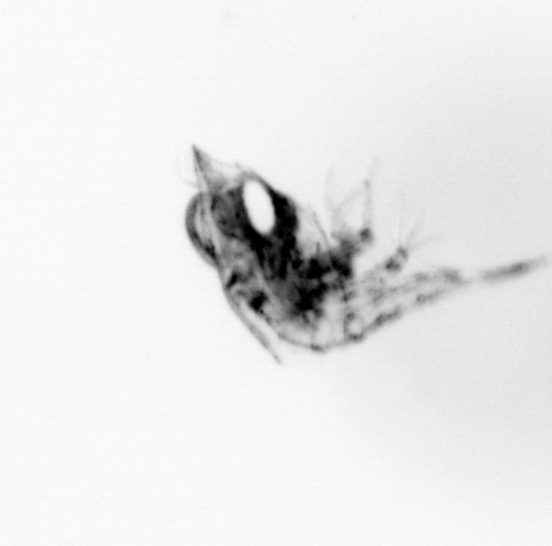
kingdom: Animalia
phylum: Arthropoda
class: Malacostraca
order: Decapoda
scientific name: Decapoda
